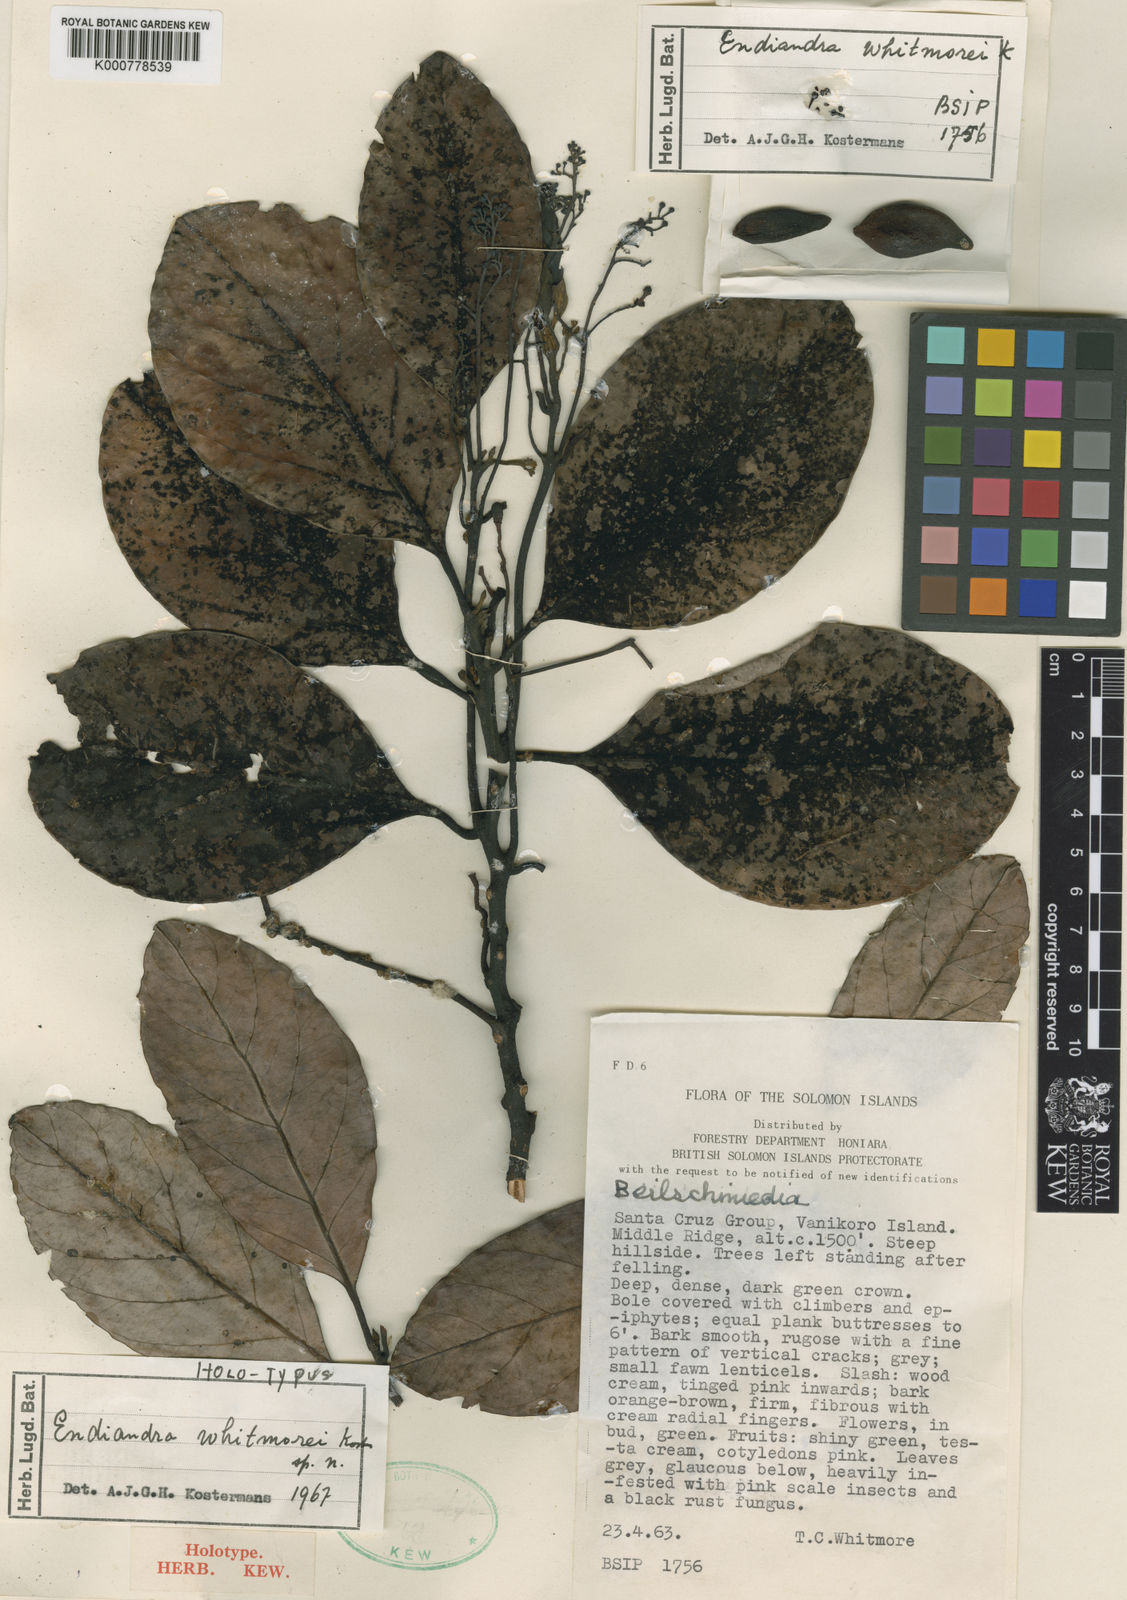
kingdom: Plantae
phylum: Tracheophyta
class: Magnoliopsida
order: Laurales
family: Lauraceae
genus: Endiandra
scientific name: Endiandra whitmorei
